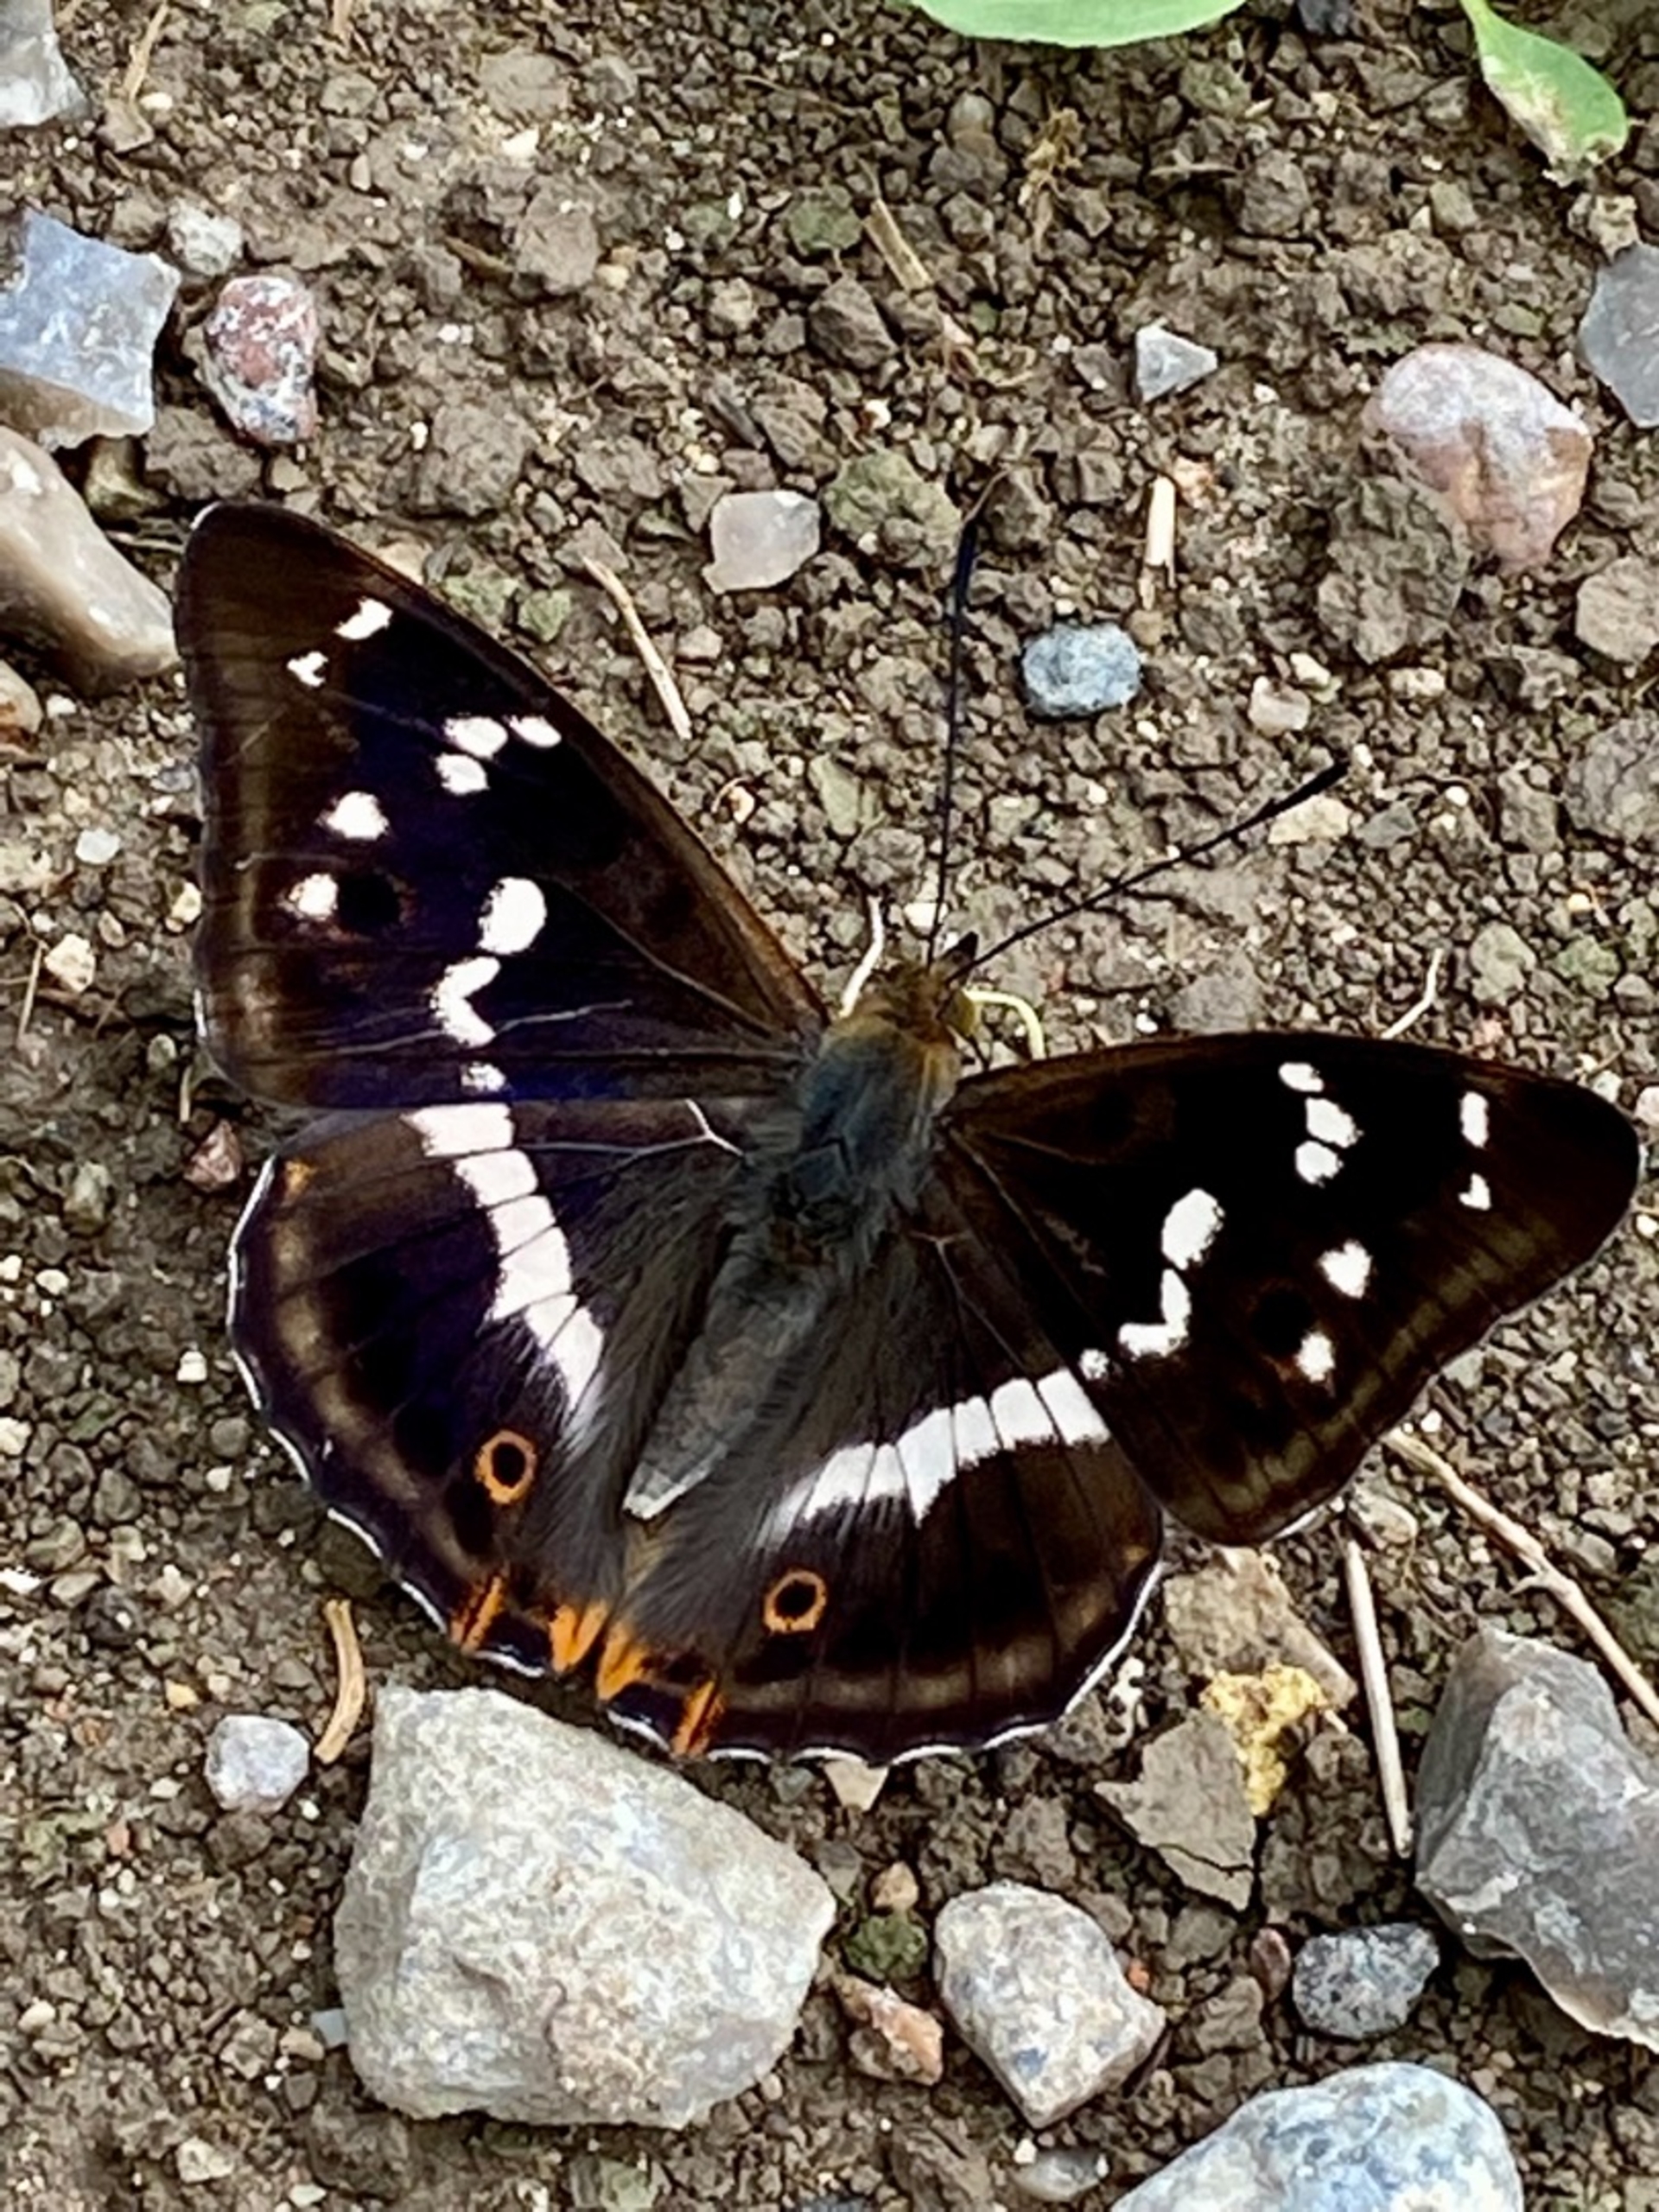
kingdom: Animalia
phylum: Arthropoda
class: Insecta
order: Lepidoptera
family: Nymphalidae
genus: Apatura
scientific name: Apatura iris
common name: Iris
